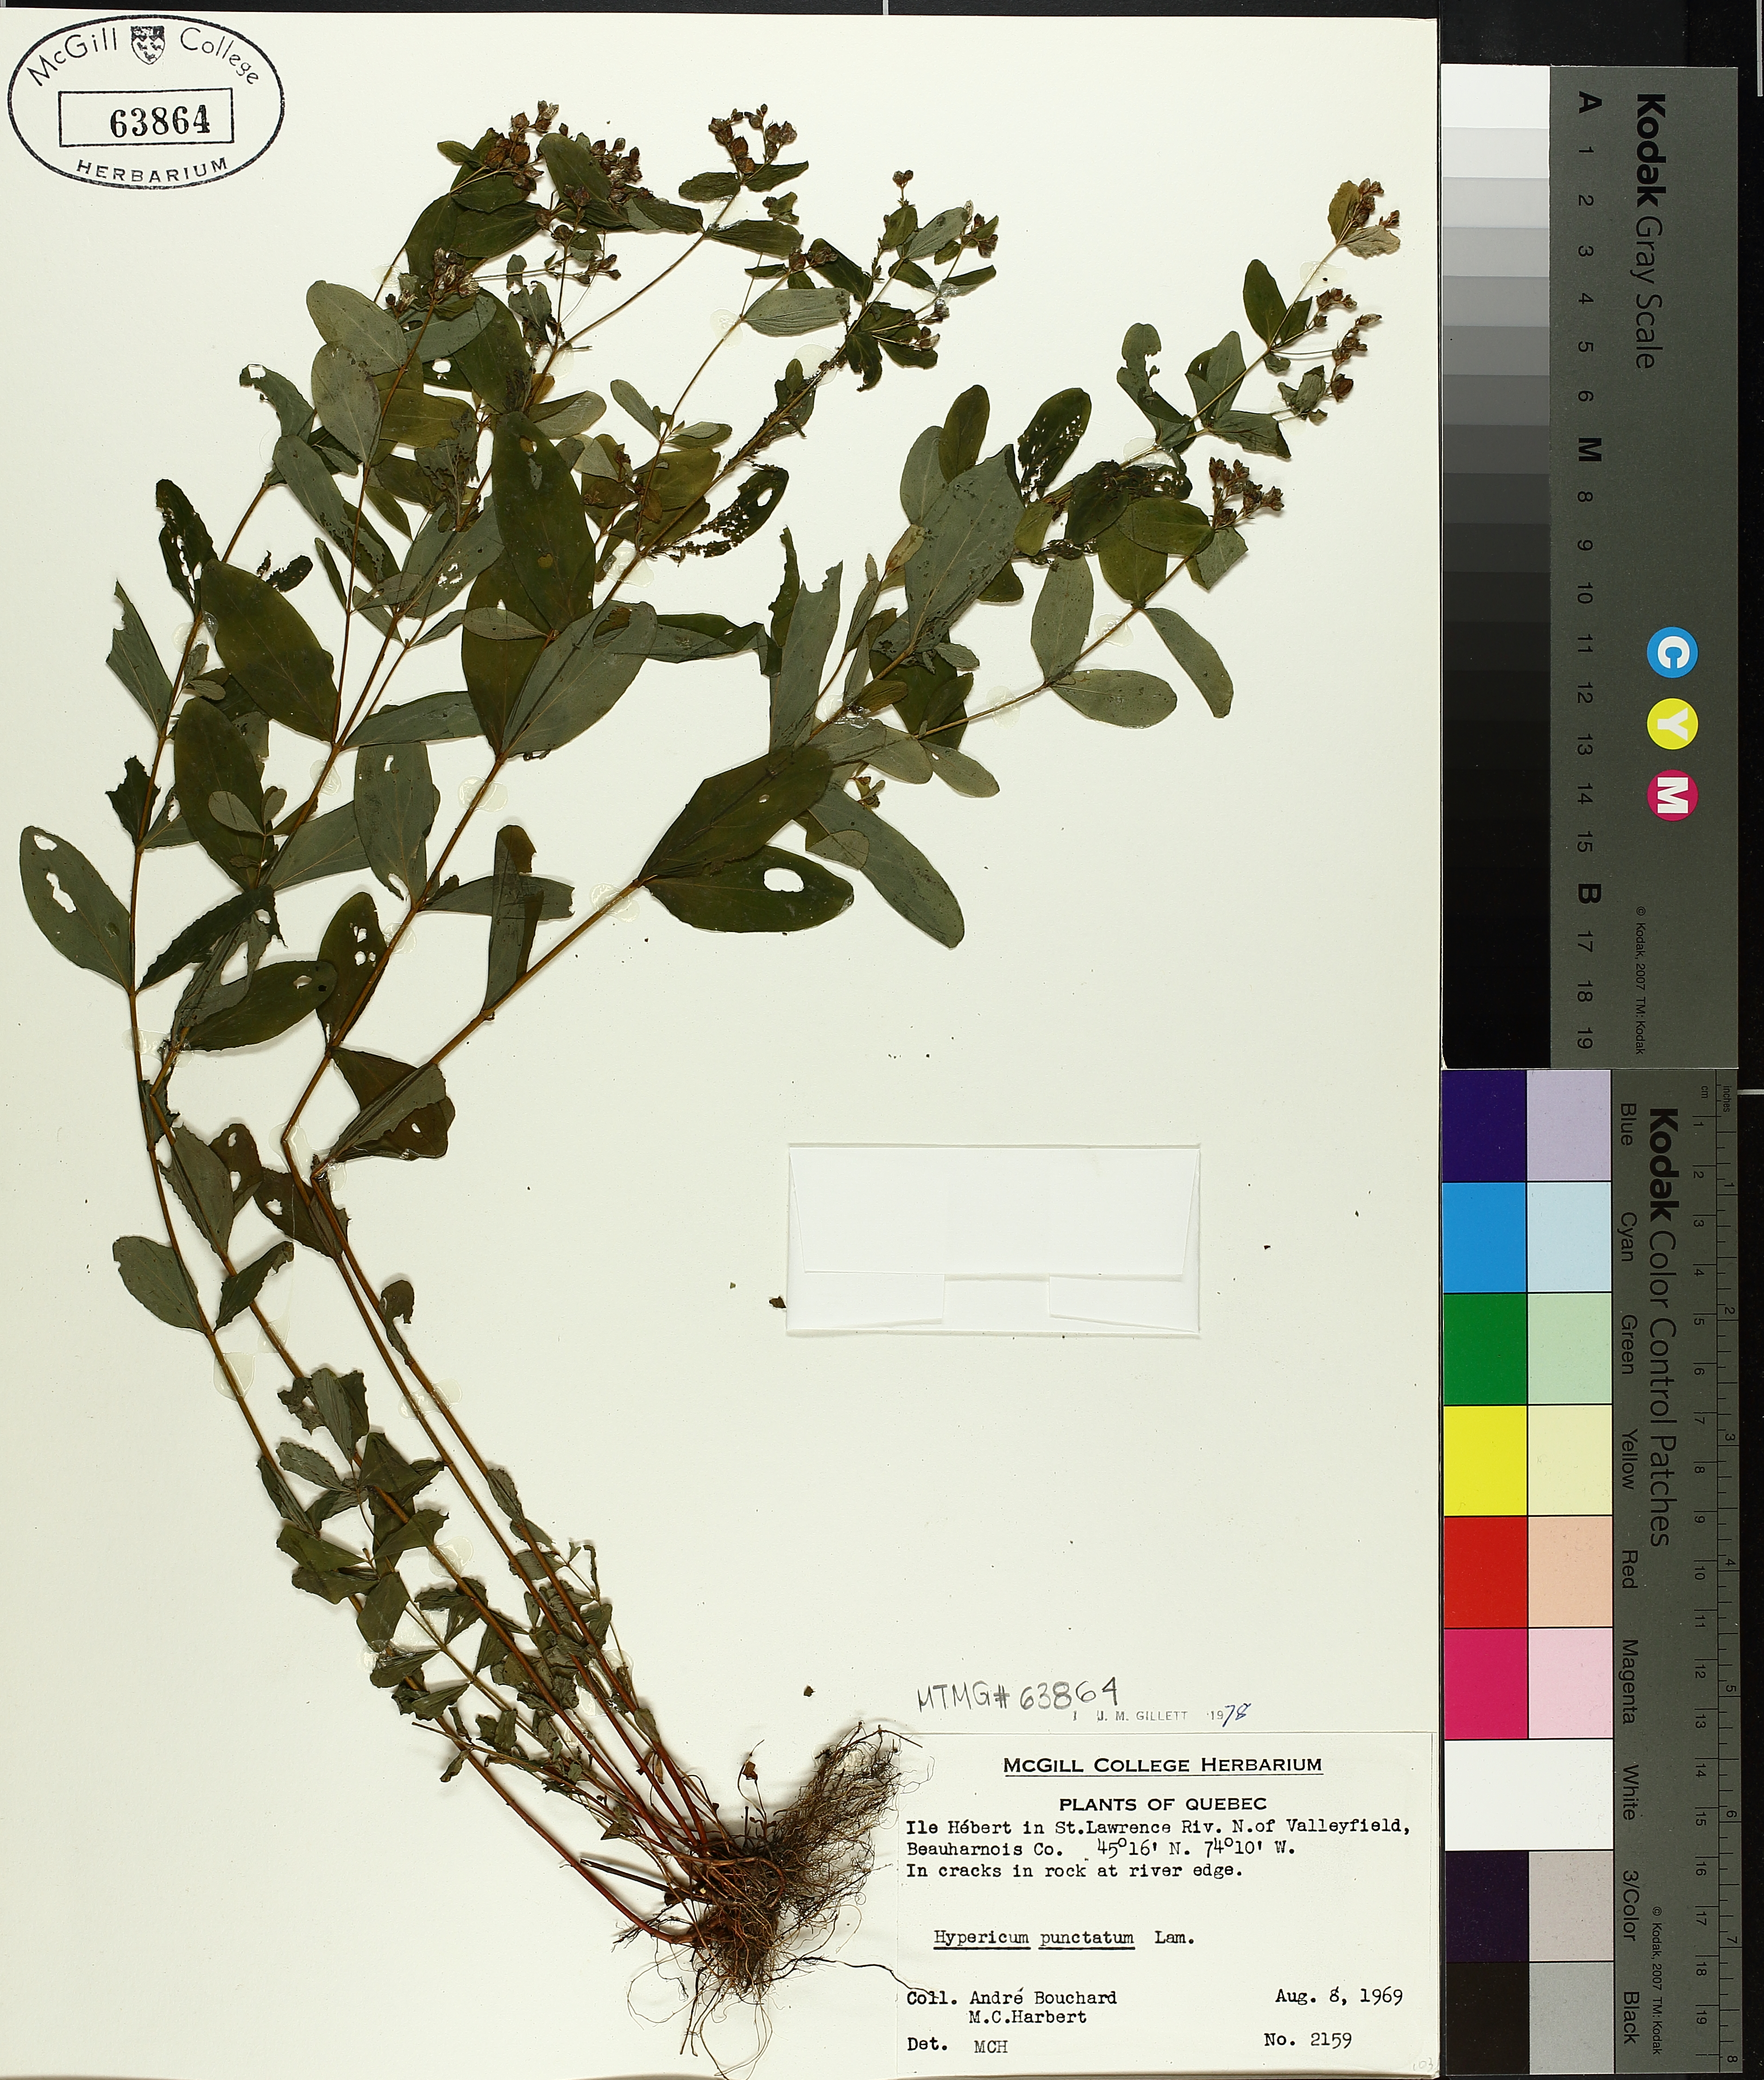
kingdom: Plantae
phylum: Tracheophyta
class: Magnoliopsida
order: Malpighiales
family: Hypericaceae
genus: Hypericum
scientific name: Hypericum punctatum
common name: Spotted st. john's-wort
